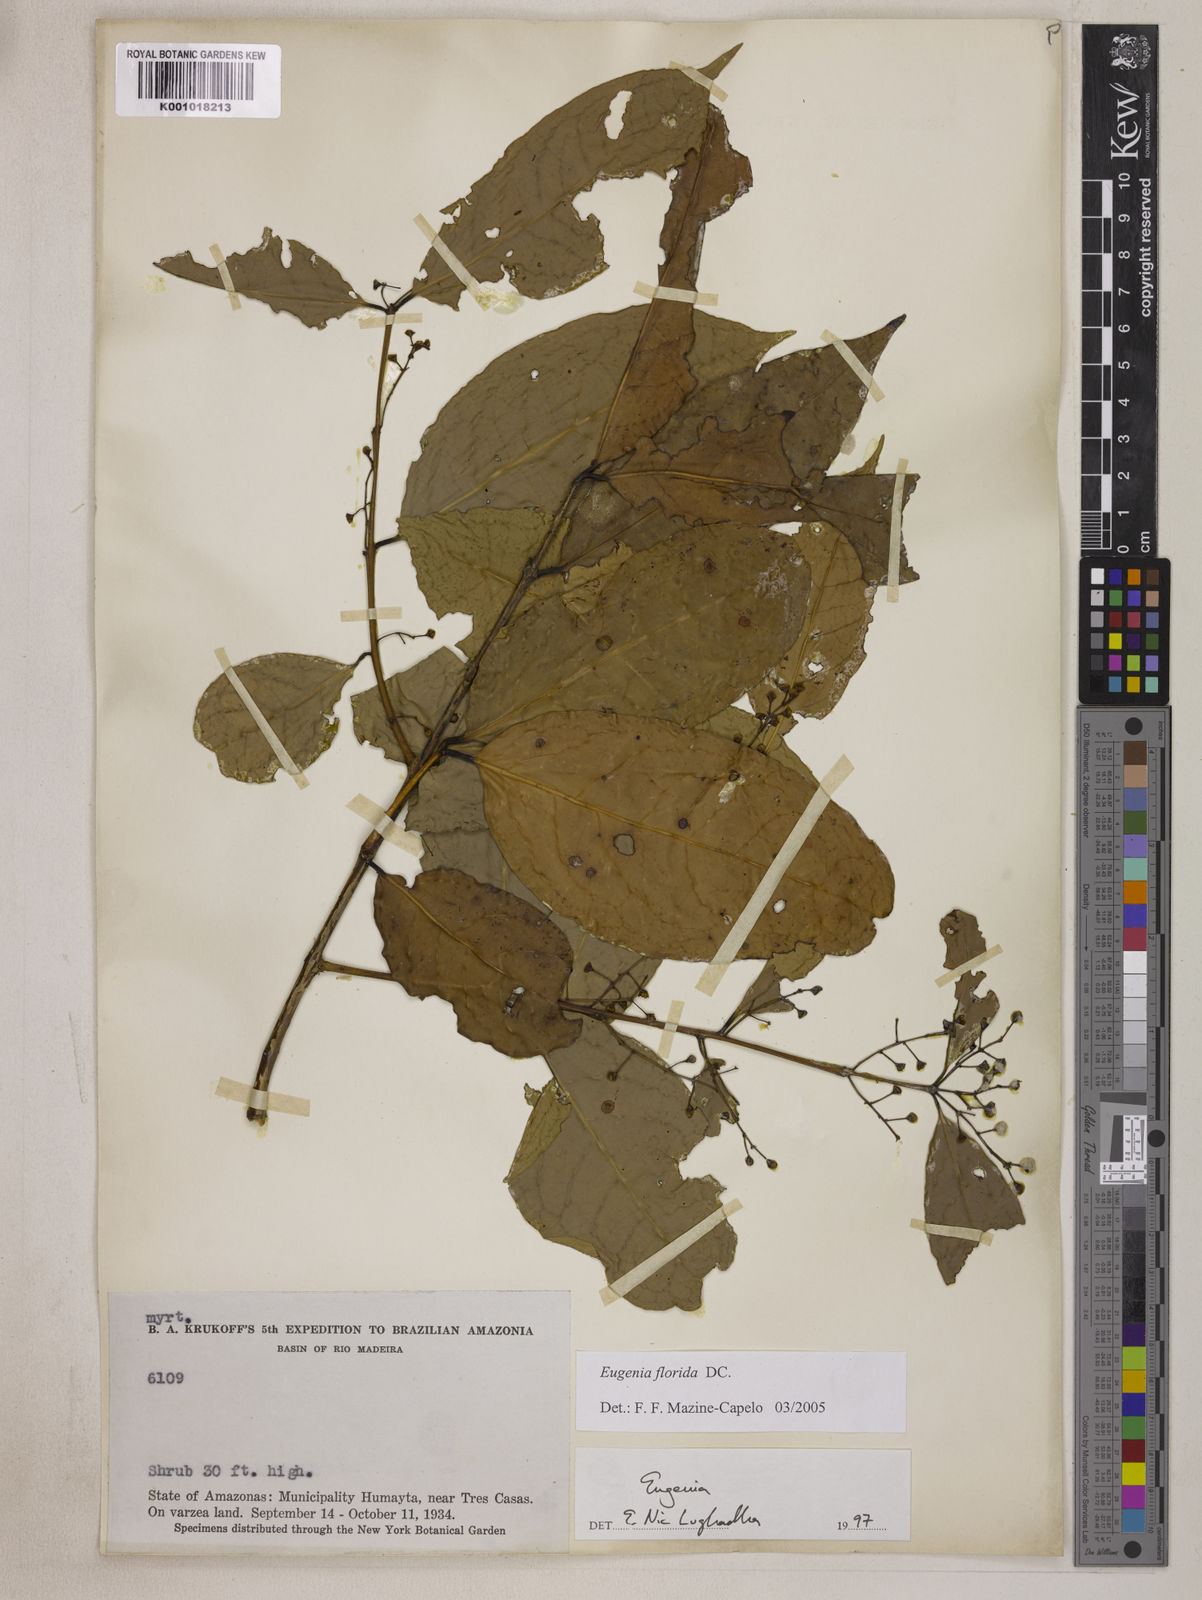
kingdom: Plantae
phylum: Tracheophyta
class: Magnoliopsida
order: Myrtales
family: Myrtaceae
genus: Eugenia
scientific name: Eugenia florida
